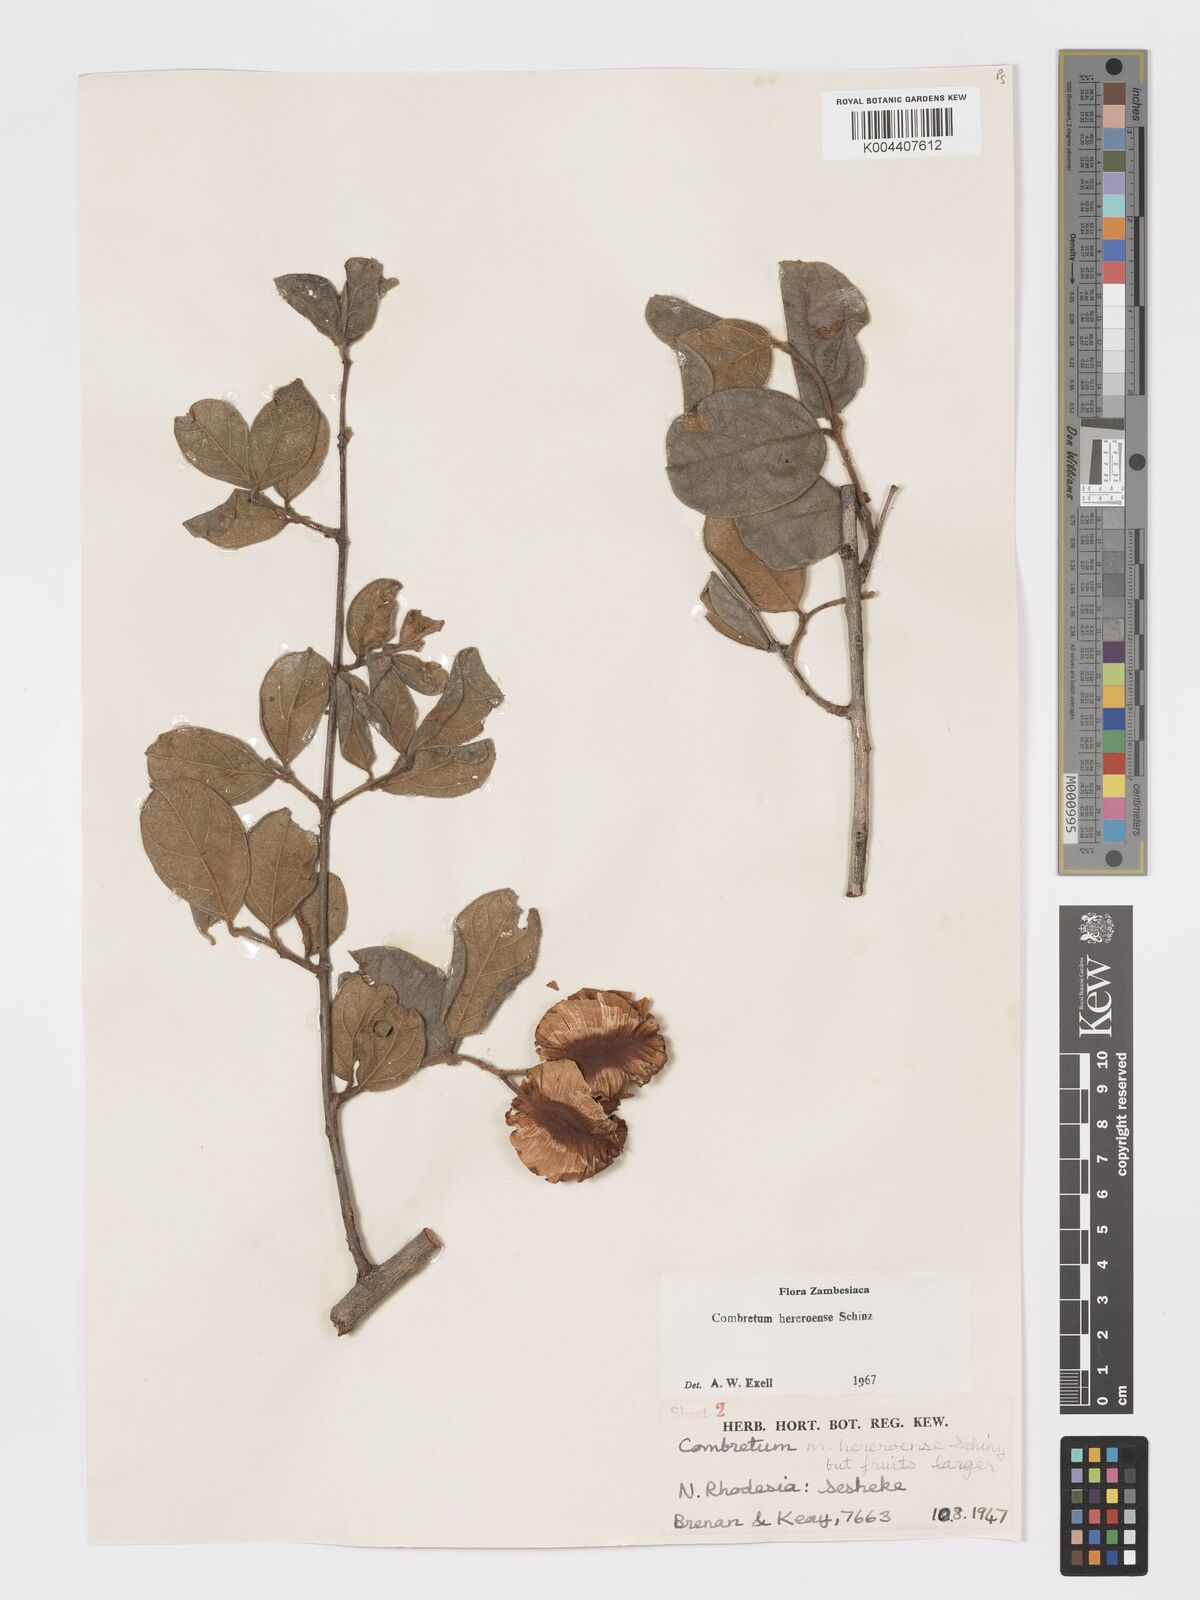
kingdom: Plantae
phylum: Tracheophyta
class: Magnoliopsida
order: Myrtales
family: Combretaceae
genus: Combretum
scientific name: Combretum hereroense
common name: Russet bushwillow
